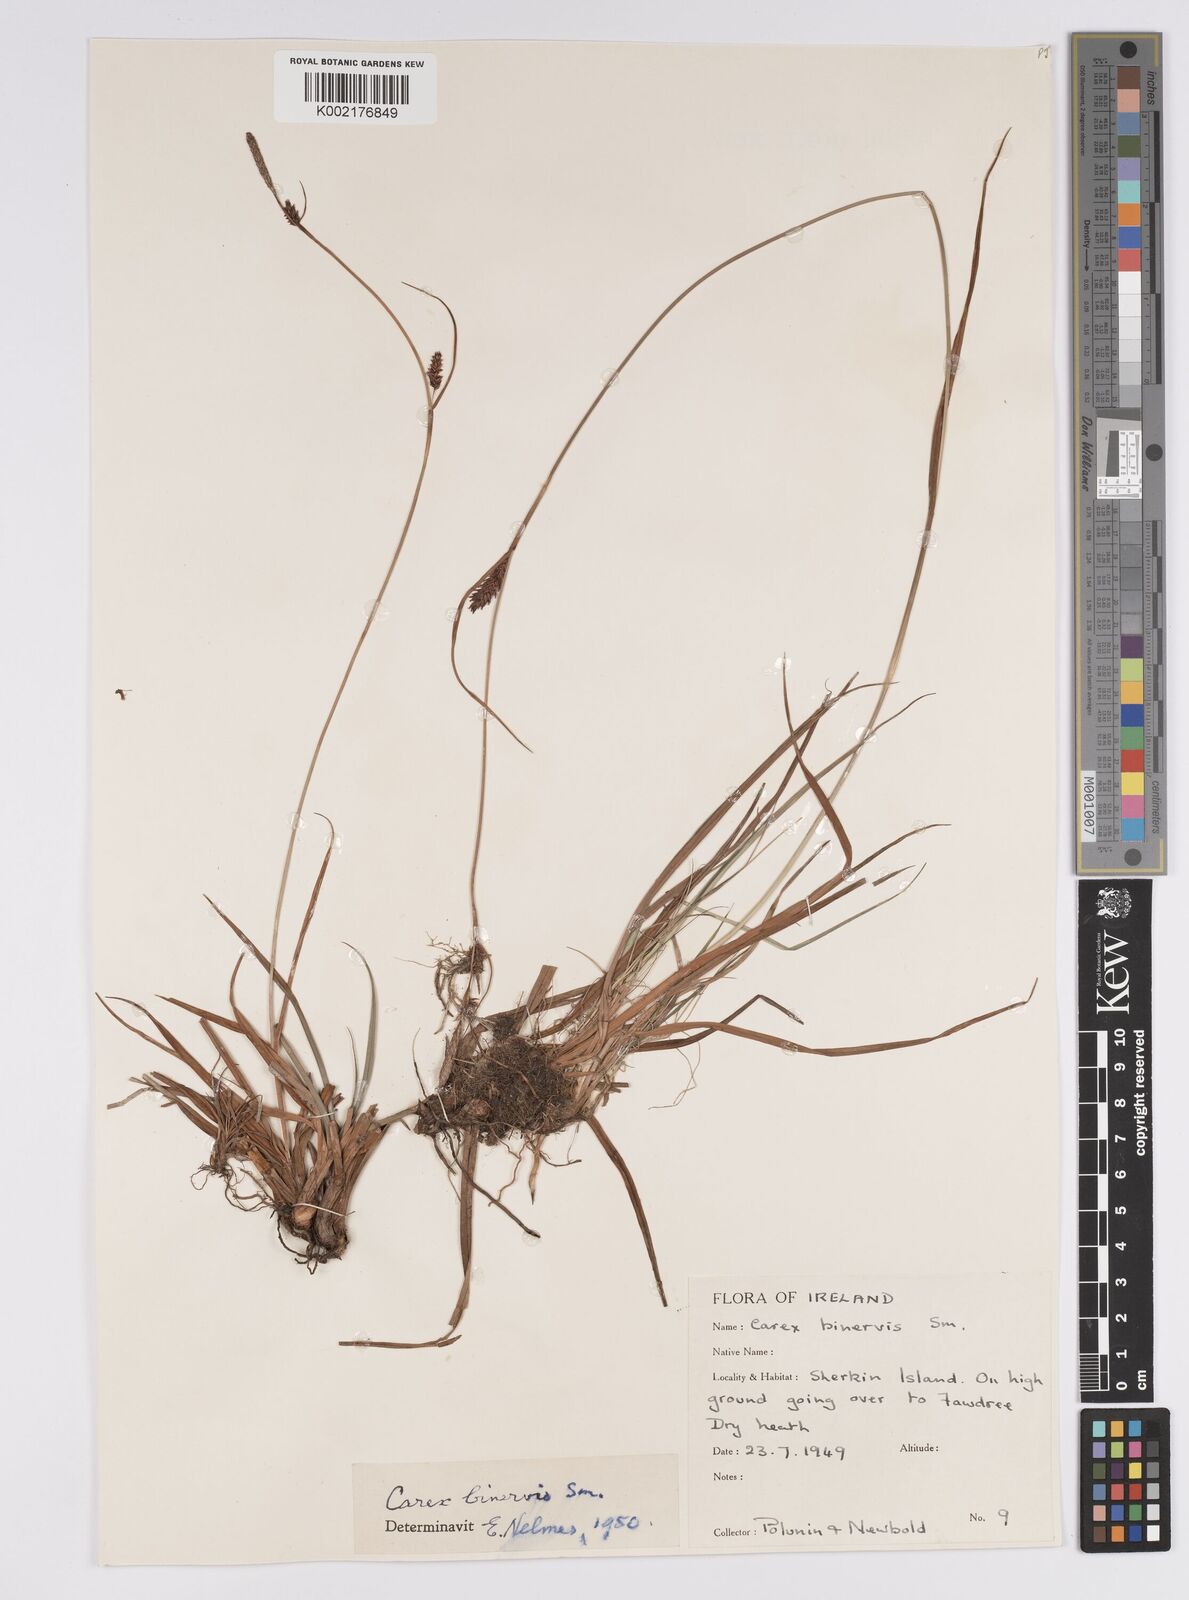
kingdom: Plantae
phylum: Tracheophyta
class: Liliopsida
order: Poales
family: Cyperaceae
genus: Carex
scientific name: Carex binervis
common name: Green-ribbed sedge
